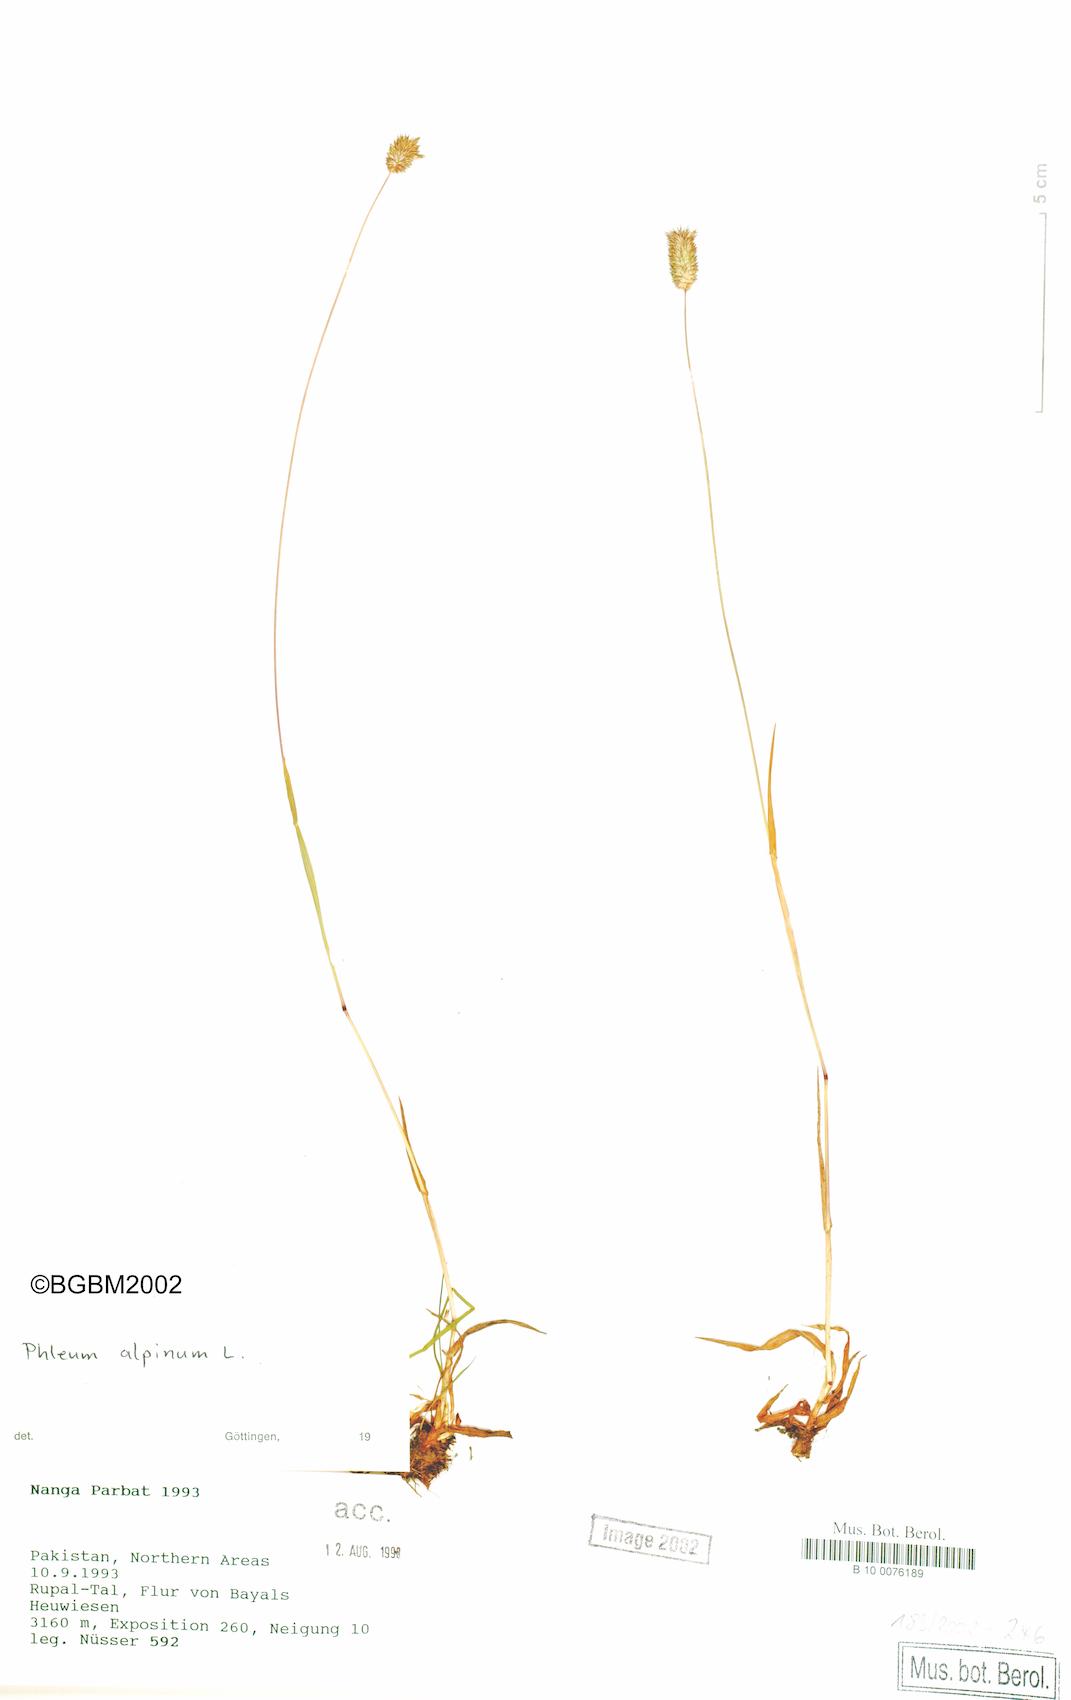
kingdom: Plantae
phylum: Tracheophyta
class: Liliopsida
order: Poales
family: Poaceae
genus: Phleum
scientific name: Phleum alpinum
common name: Alpine cat's-tail
